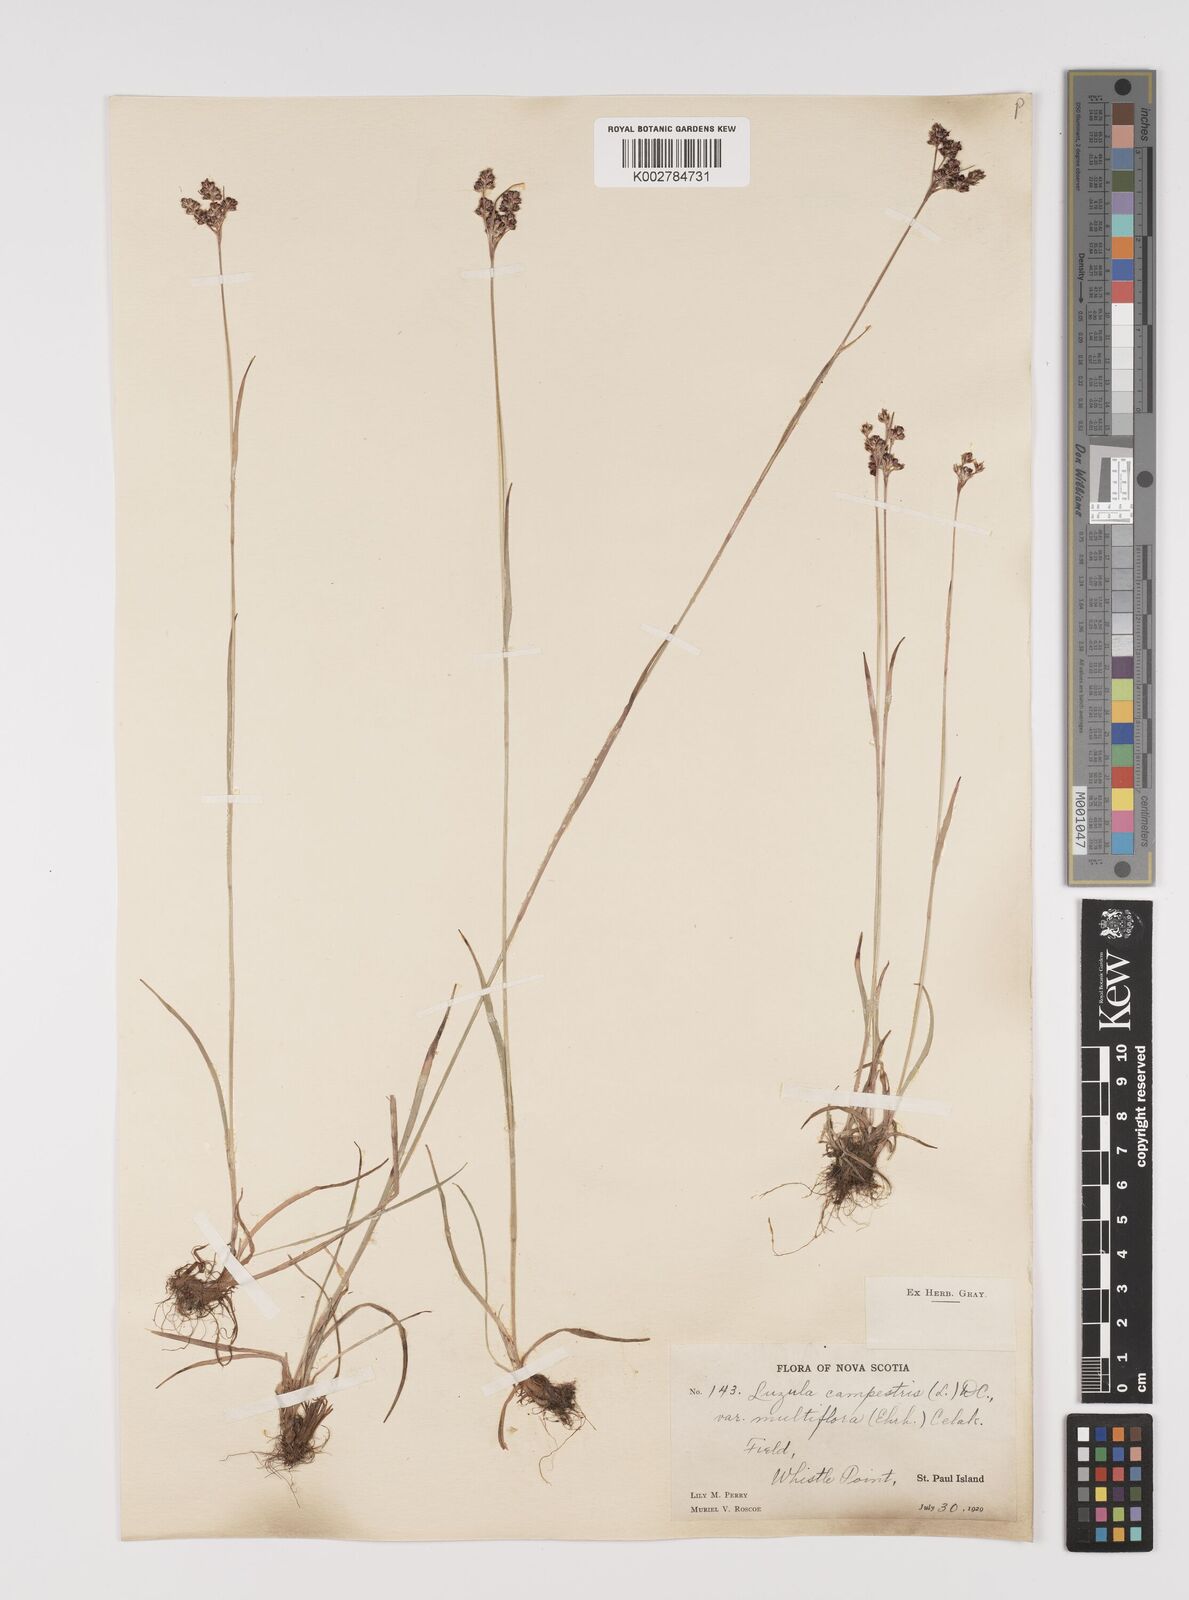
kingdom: Plantae
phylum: Tracheophyta
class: Liliopsida
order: Poales
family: Juncaceae
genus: Luzula
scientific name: Luzula campestris
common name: Field wood-rush
